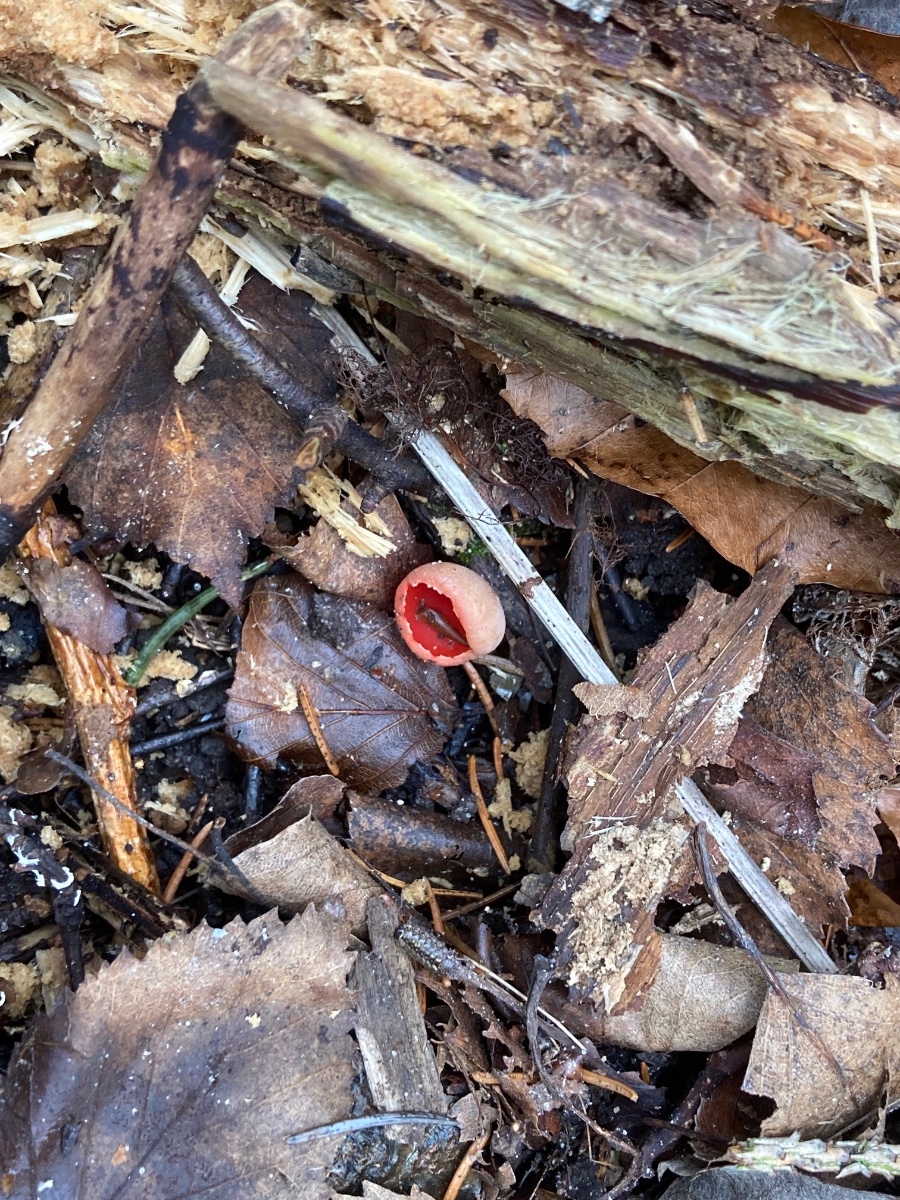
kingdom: Fungi
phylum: Ascomycota
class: Pezizomycetes
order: Pezizales
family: Sarcoscyphaceae
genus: Sarcoscypha
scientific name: Sarcoscypha austriaca
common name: krølhåret pragtbæger
